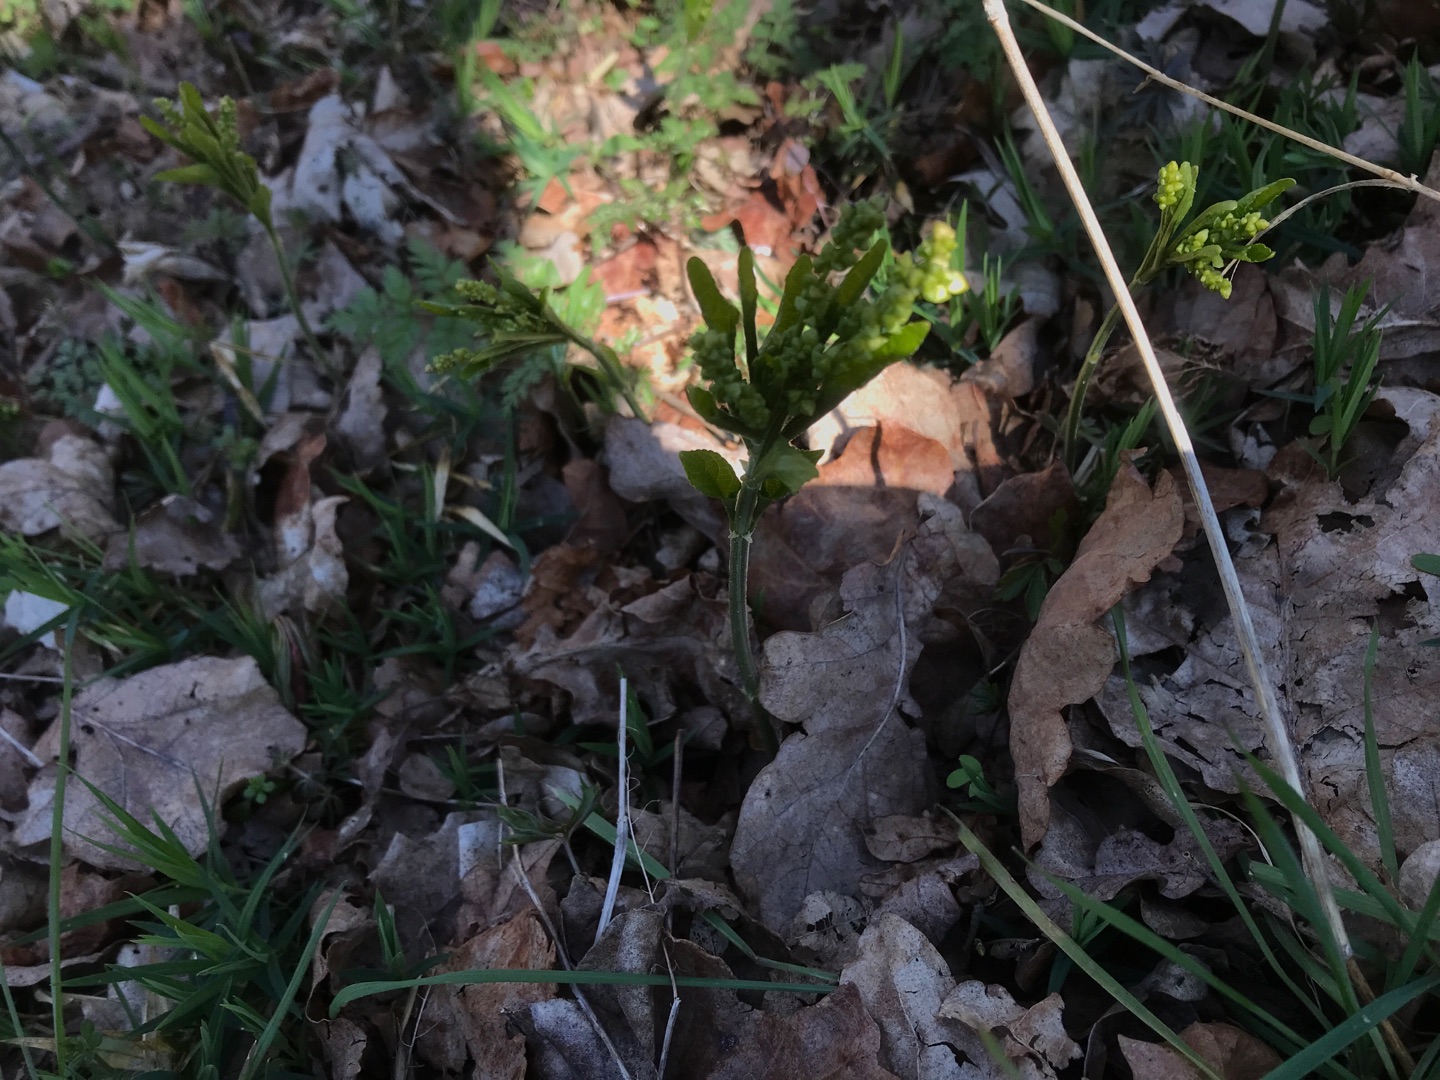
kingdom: Plantae
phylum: Tracheophyta
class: Magnoliopsida
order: Malpighiales
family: Euphorbiaceae
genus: Mercurialis
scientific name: Mercurialis perennis
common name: Almindelig bingelurt
